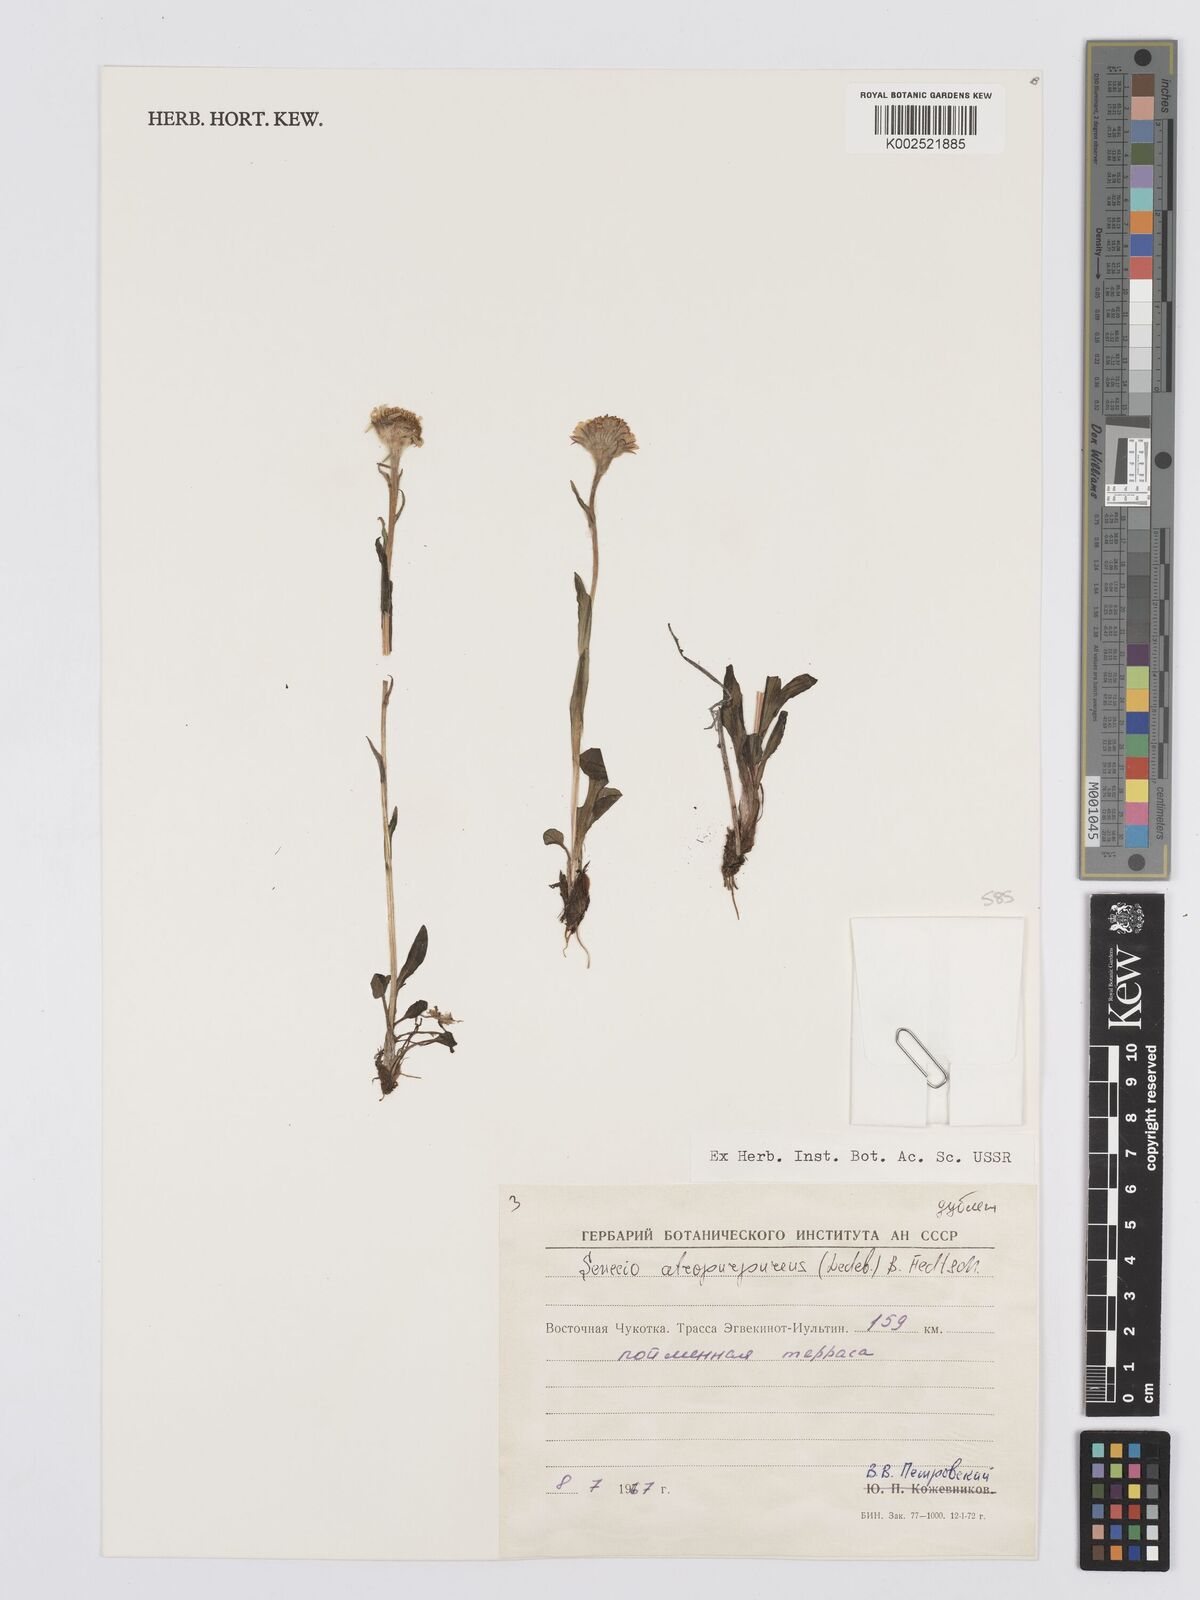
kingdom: Plantae
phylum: Tracheophyta
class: Magnoliopsida
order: Asterales
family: Asteraceae
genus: Tephroseris
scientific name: Tephroseris integrifolia
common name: Field fleawort
